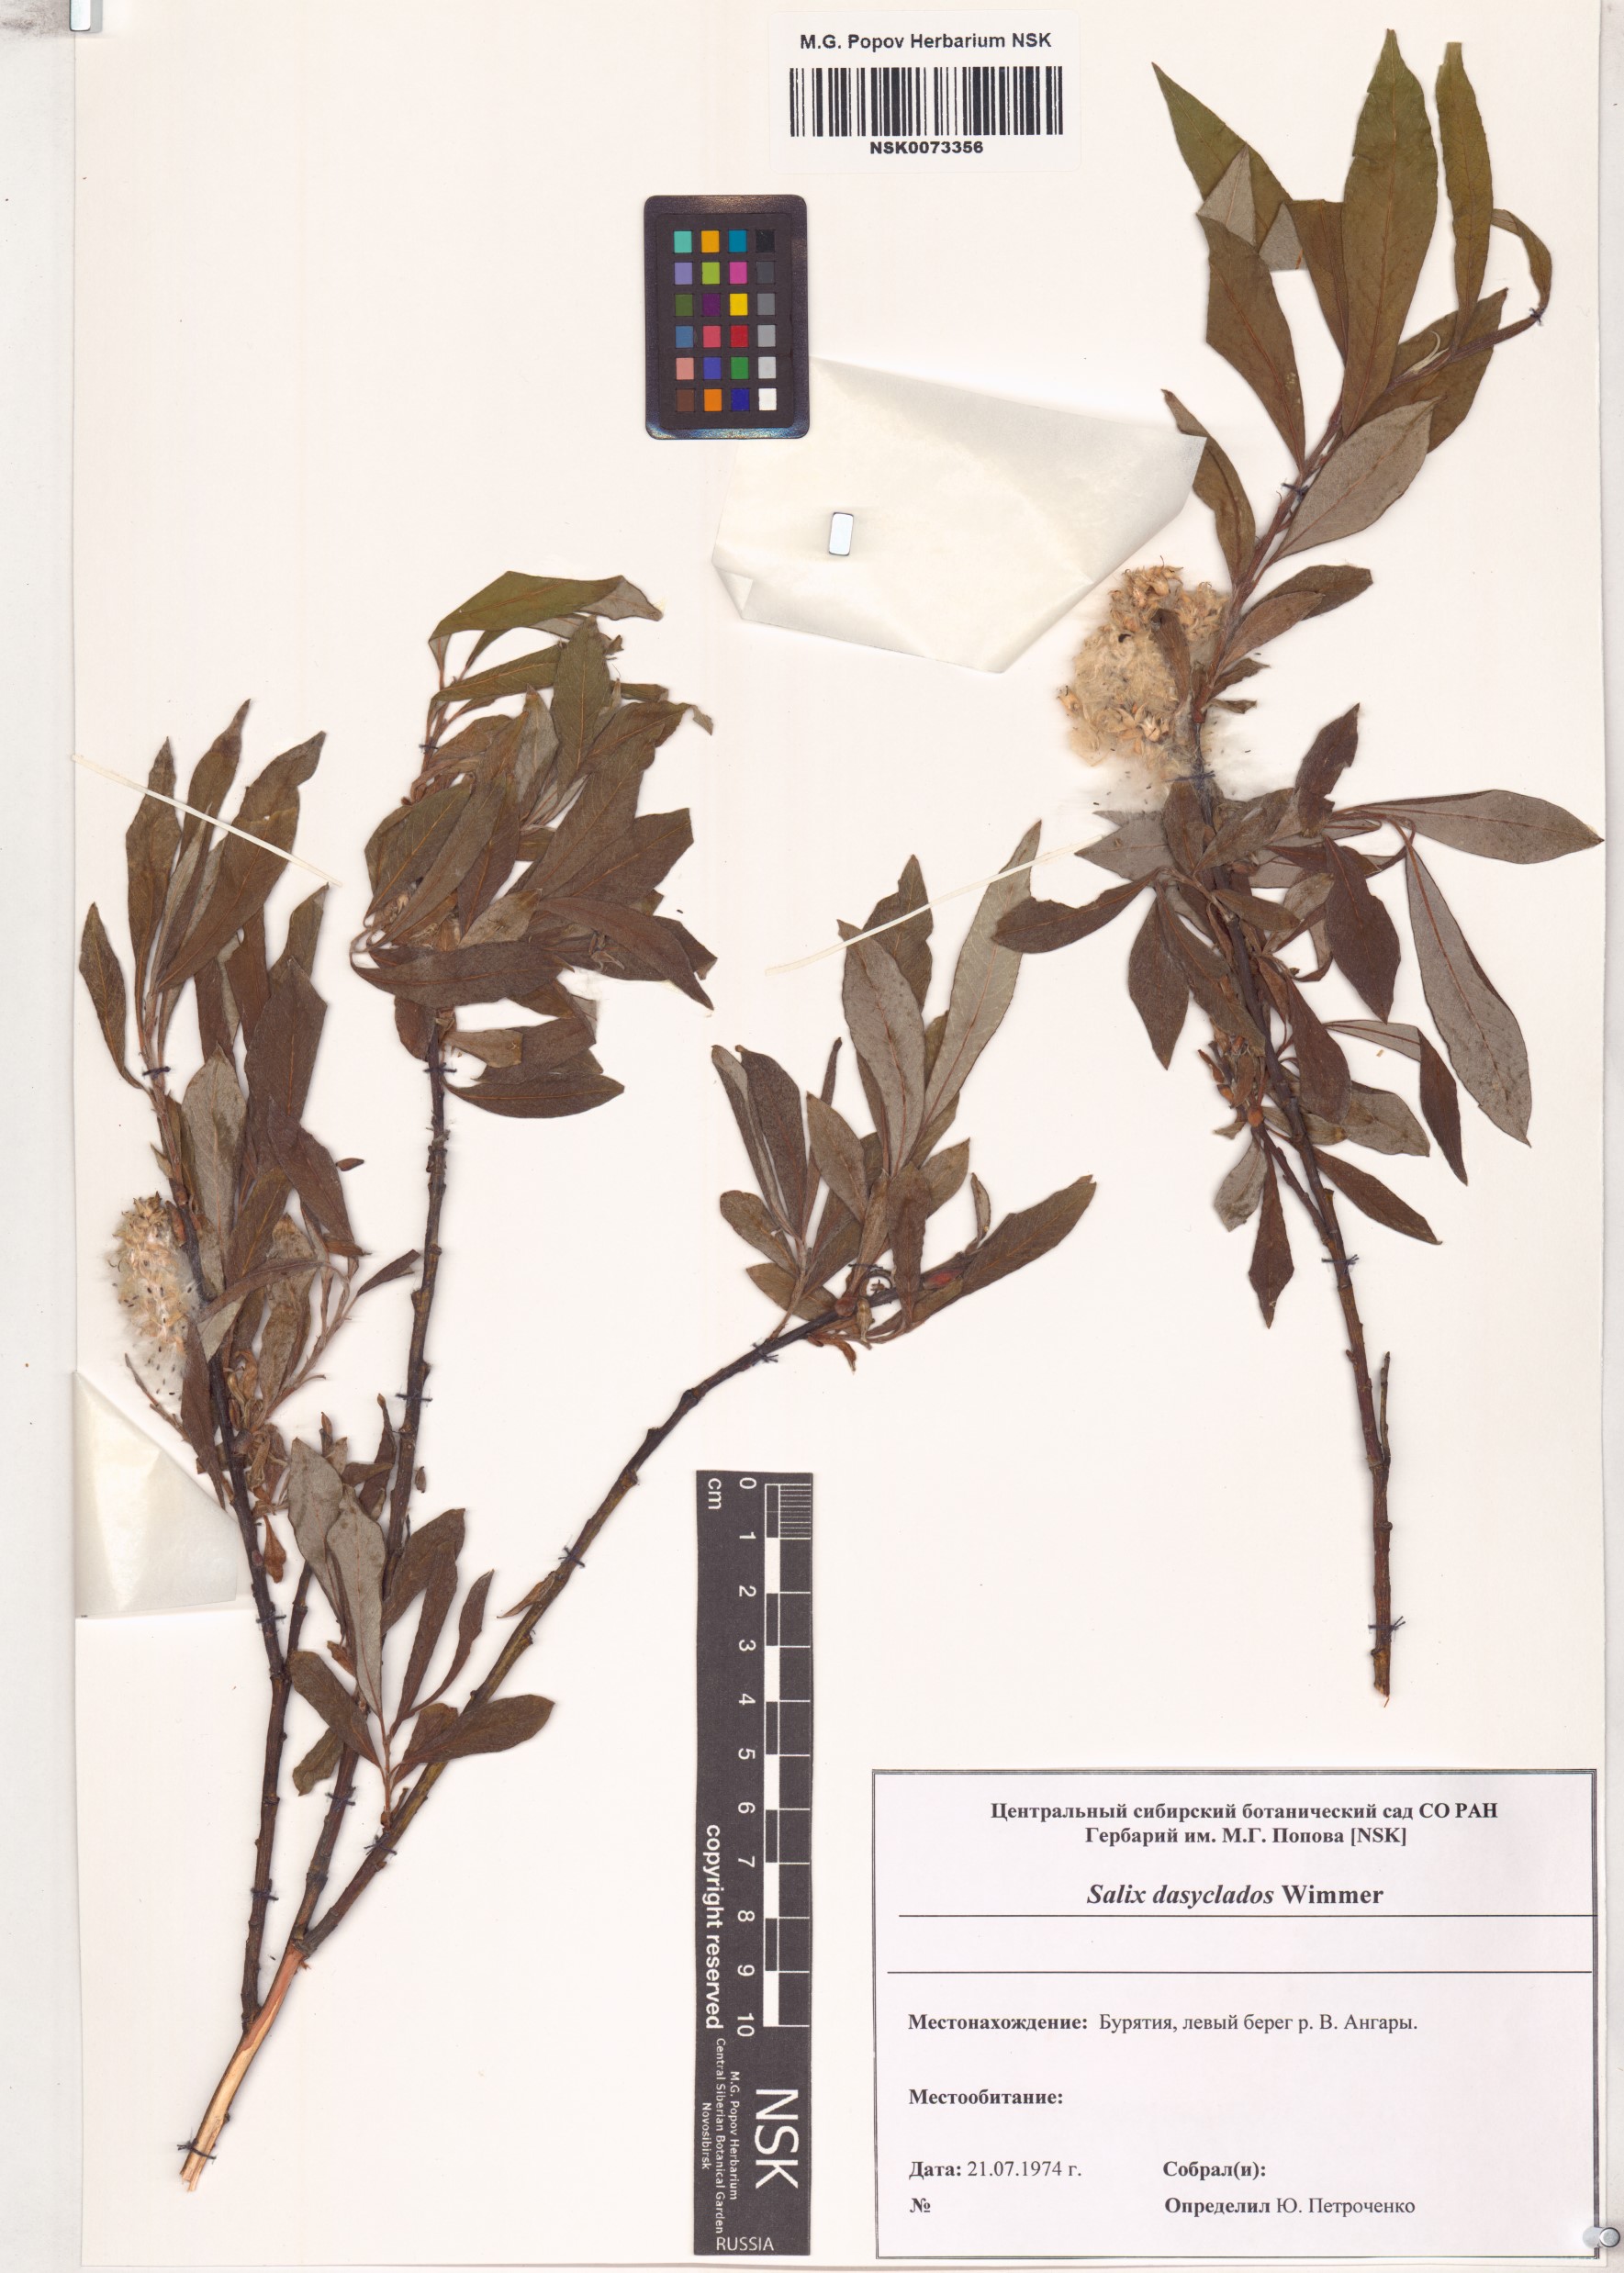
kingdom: Plantae
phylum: Tracheophyta
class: Magnoliopsida
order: Malpighiales
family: Salicaceae
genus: Salix
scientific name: Salix gmelinii
